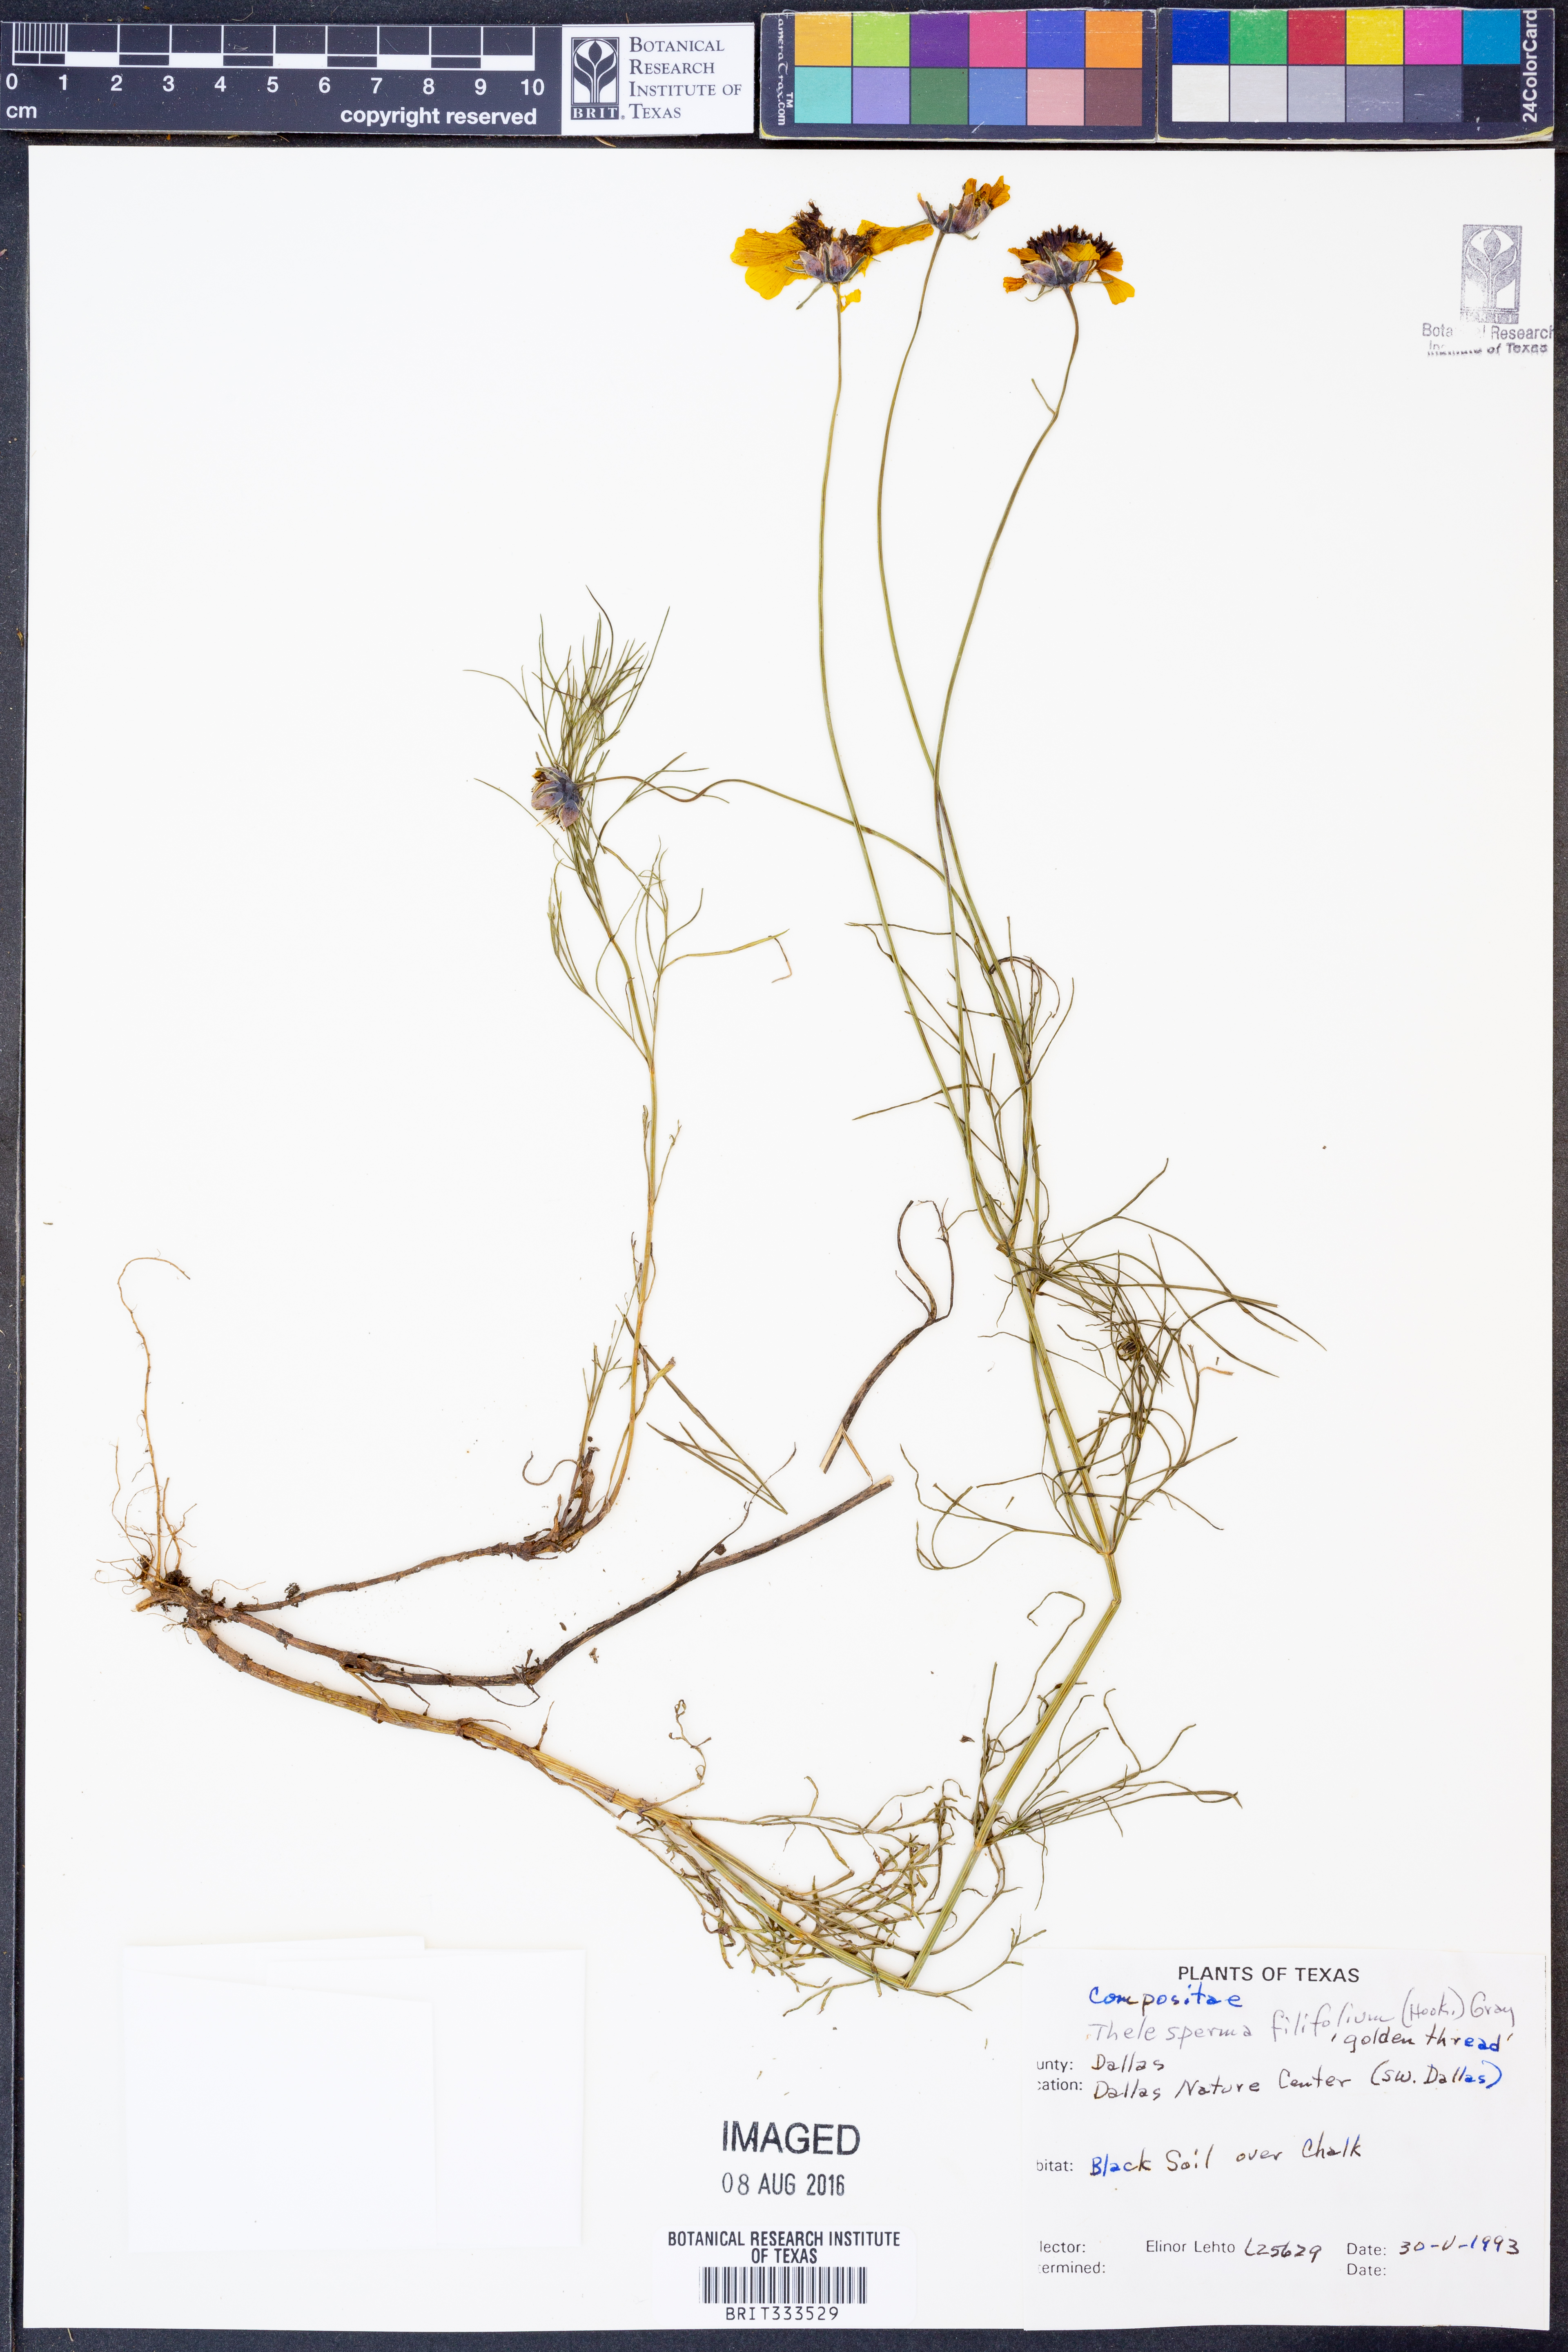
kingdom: Plantae
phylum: Tracheophyta
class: Magnoliopsida
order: Asterales
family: Asteraceae
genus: Thelesperma
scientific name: Thelesperma filifolium
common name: Stiff greenthread
